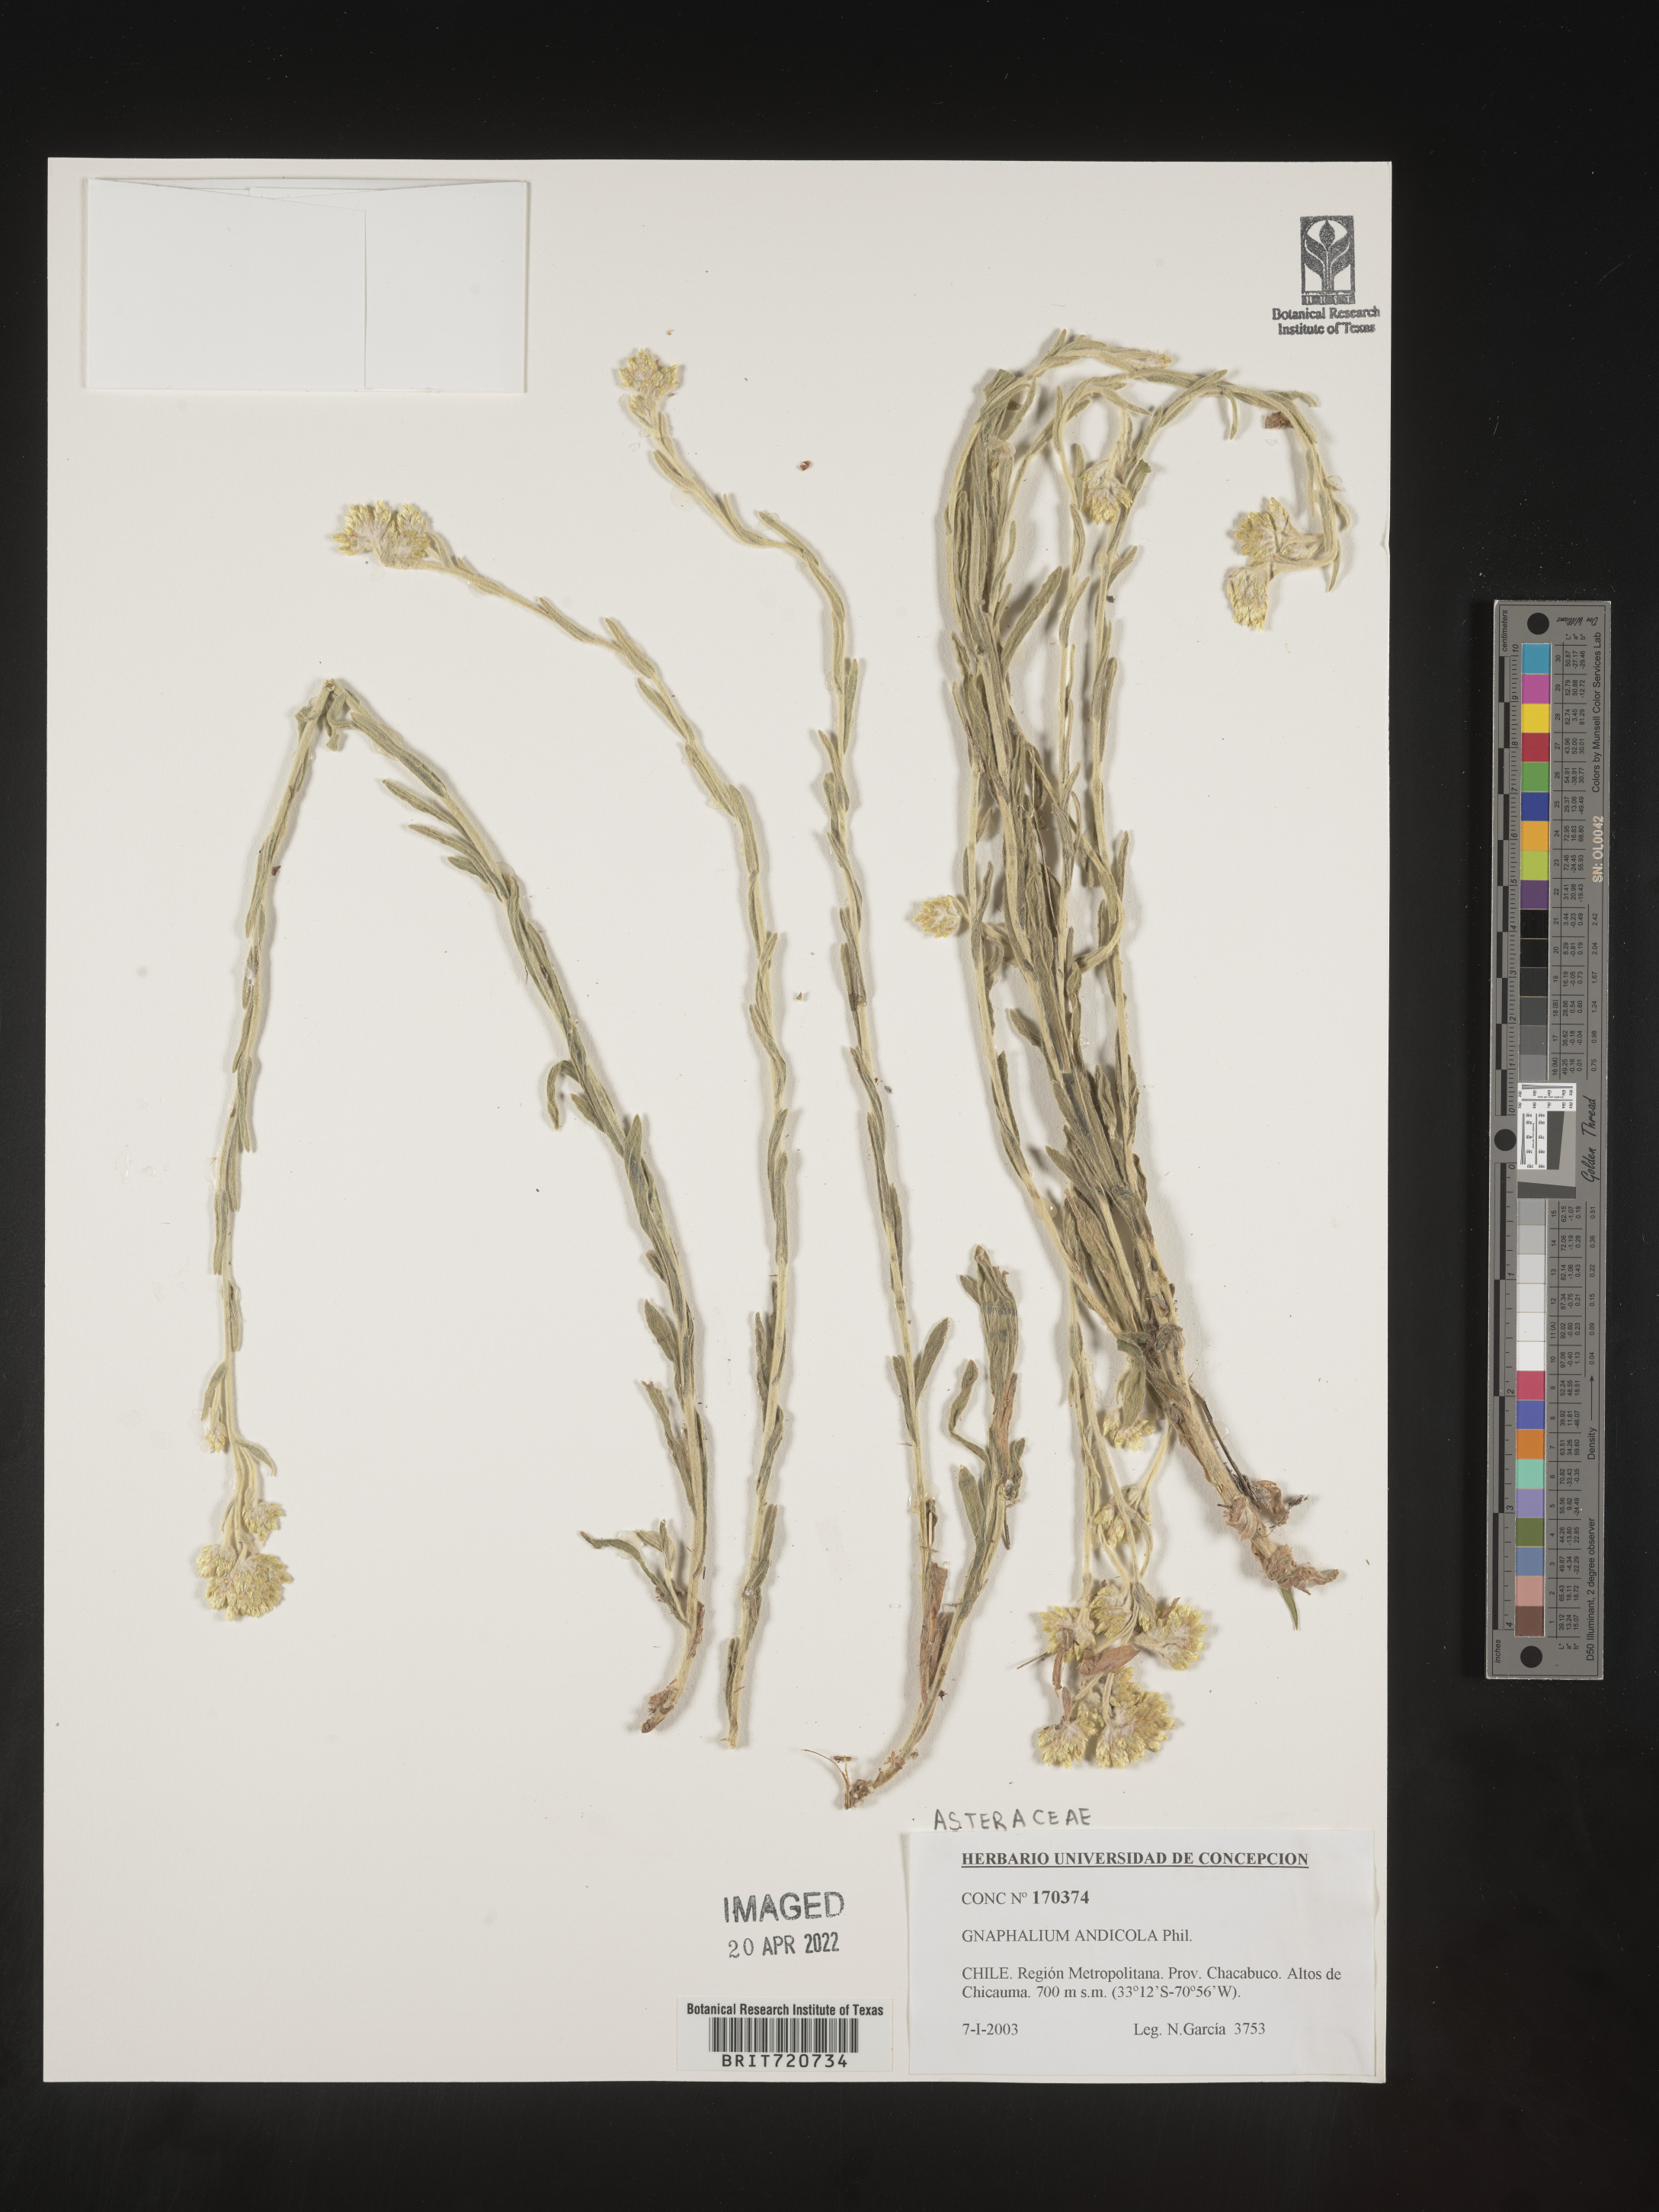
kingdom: Plantae
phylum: Tracheophyta
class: Magnoliopsida
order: Asterales
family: Asteraceae
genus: Gnaphalium
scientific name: Gnaphalium
